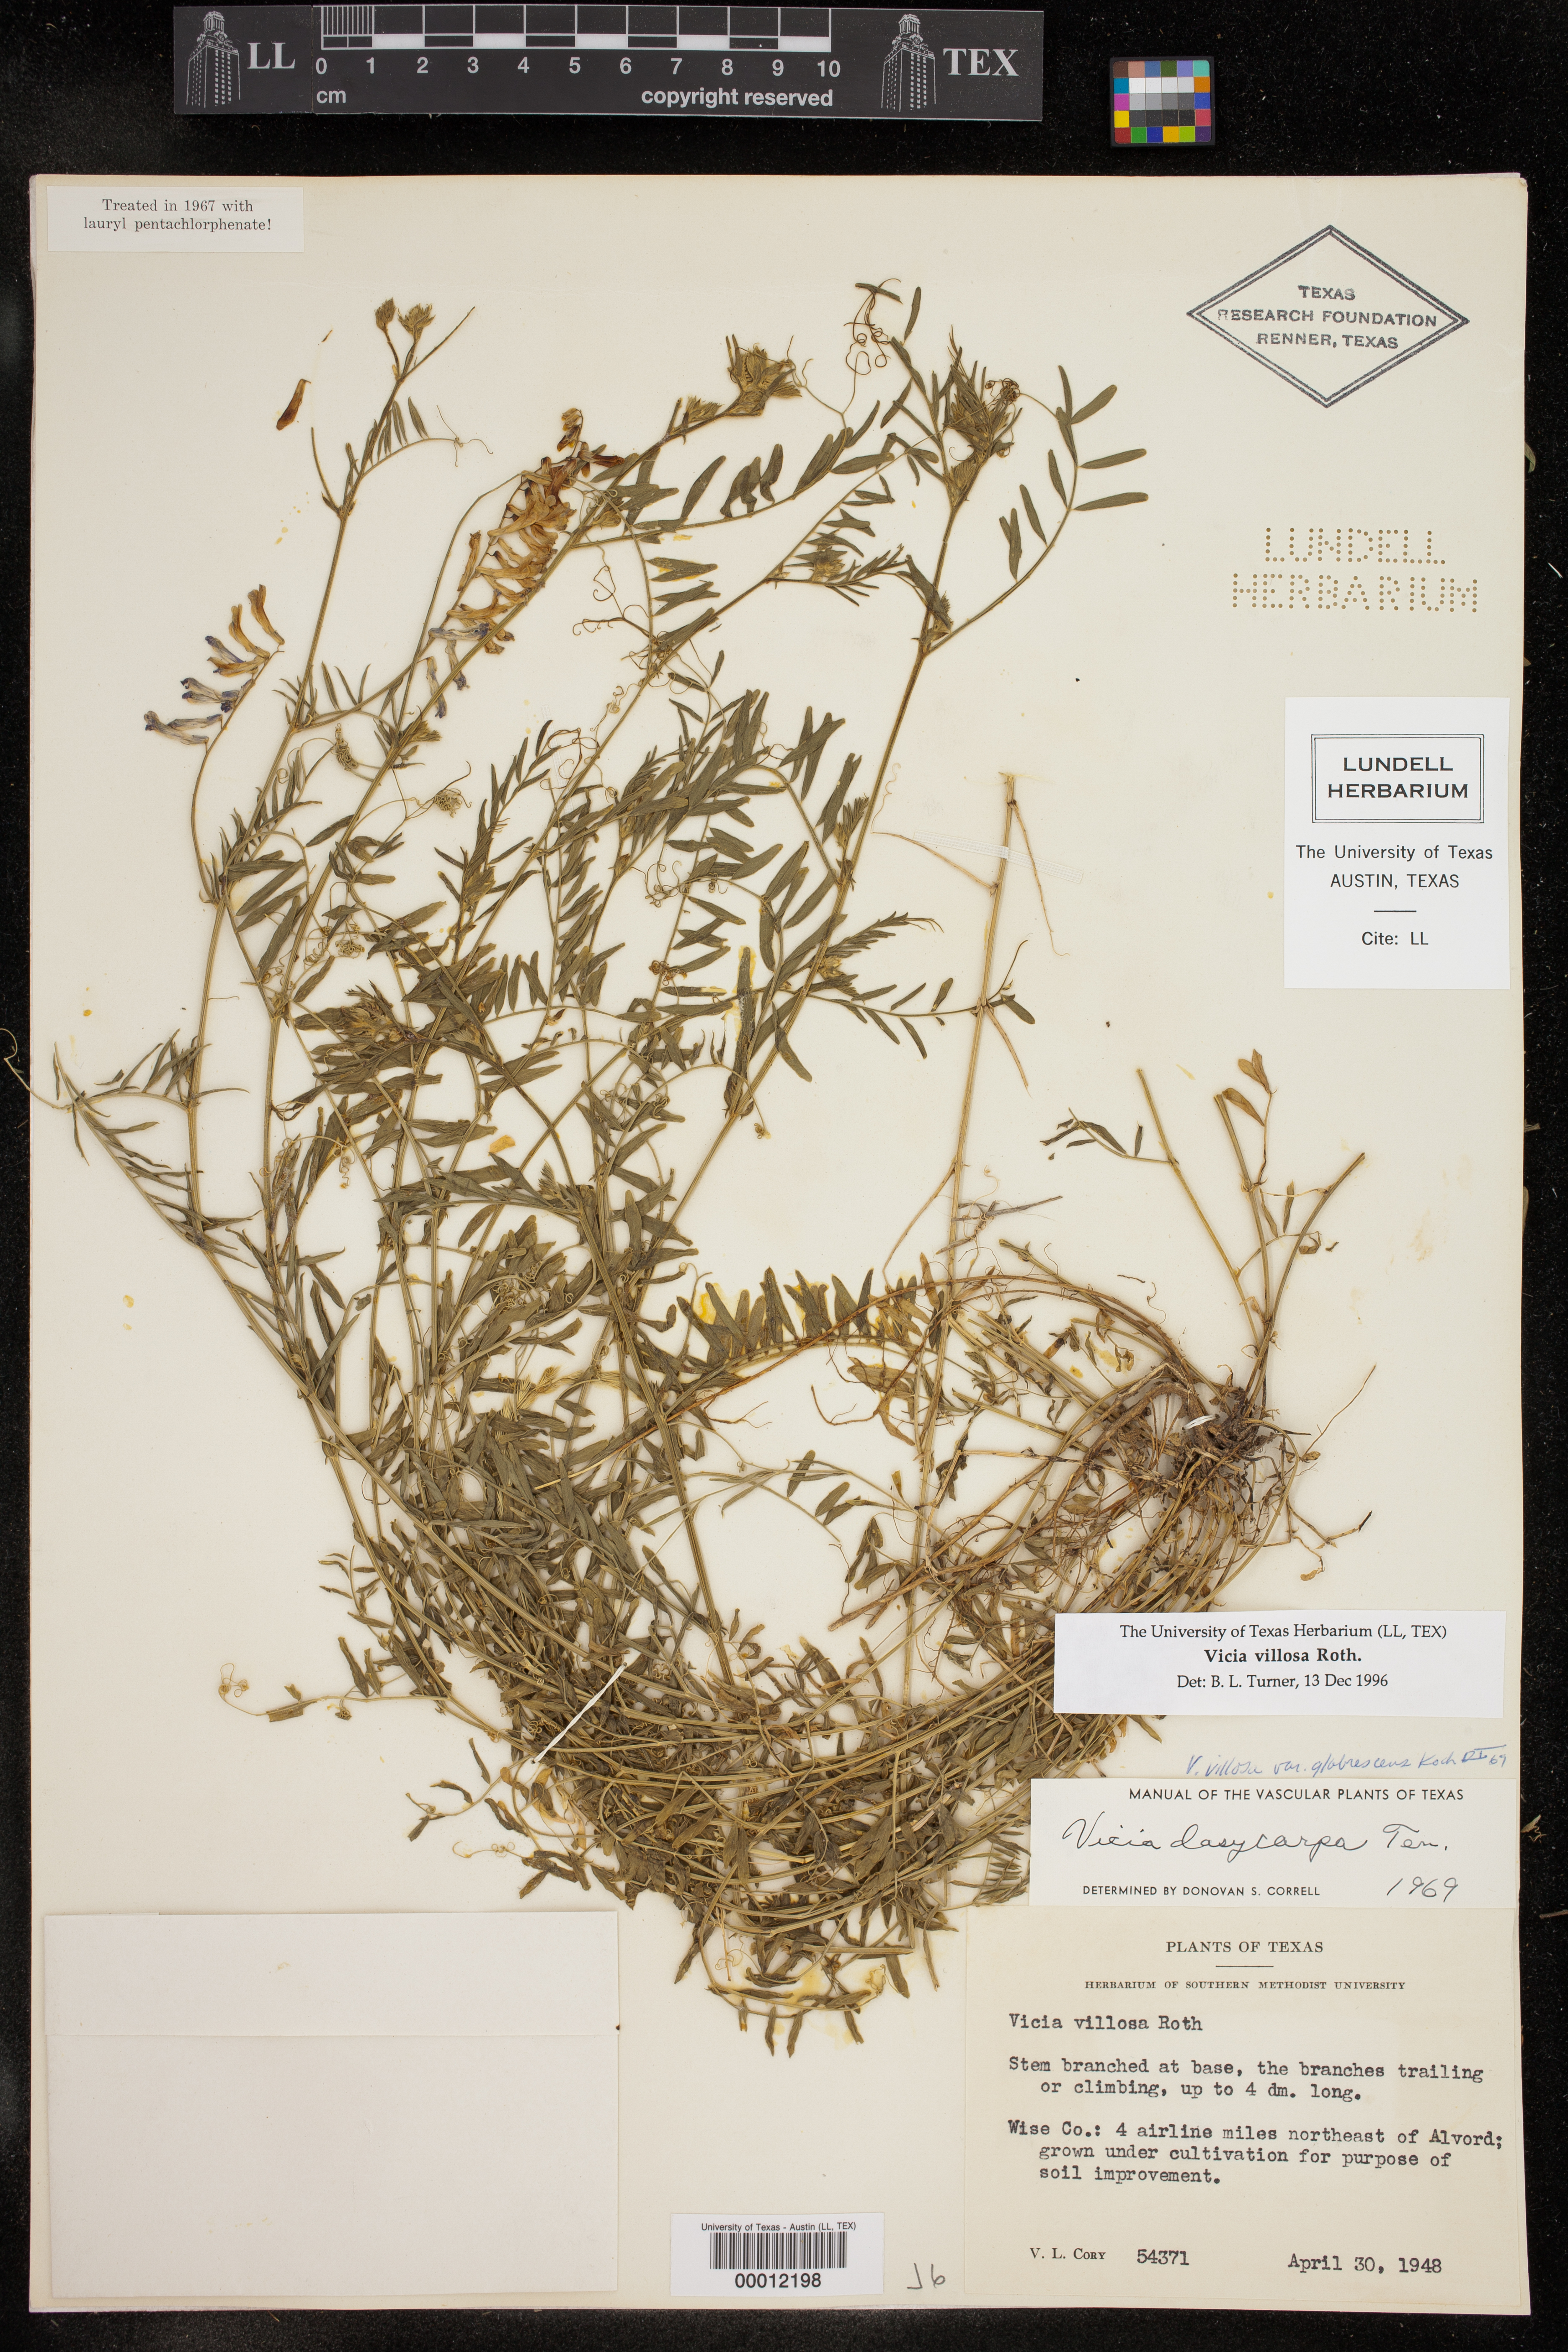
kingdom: Plantae
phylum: Tracheophyta
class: Magnoliopsida
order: Fabales
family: Fabaceae
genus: Vicia
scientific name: Vicia villosa
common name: Fodder vetch
